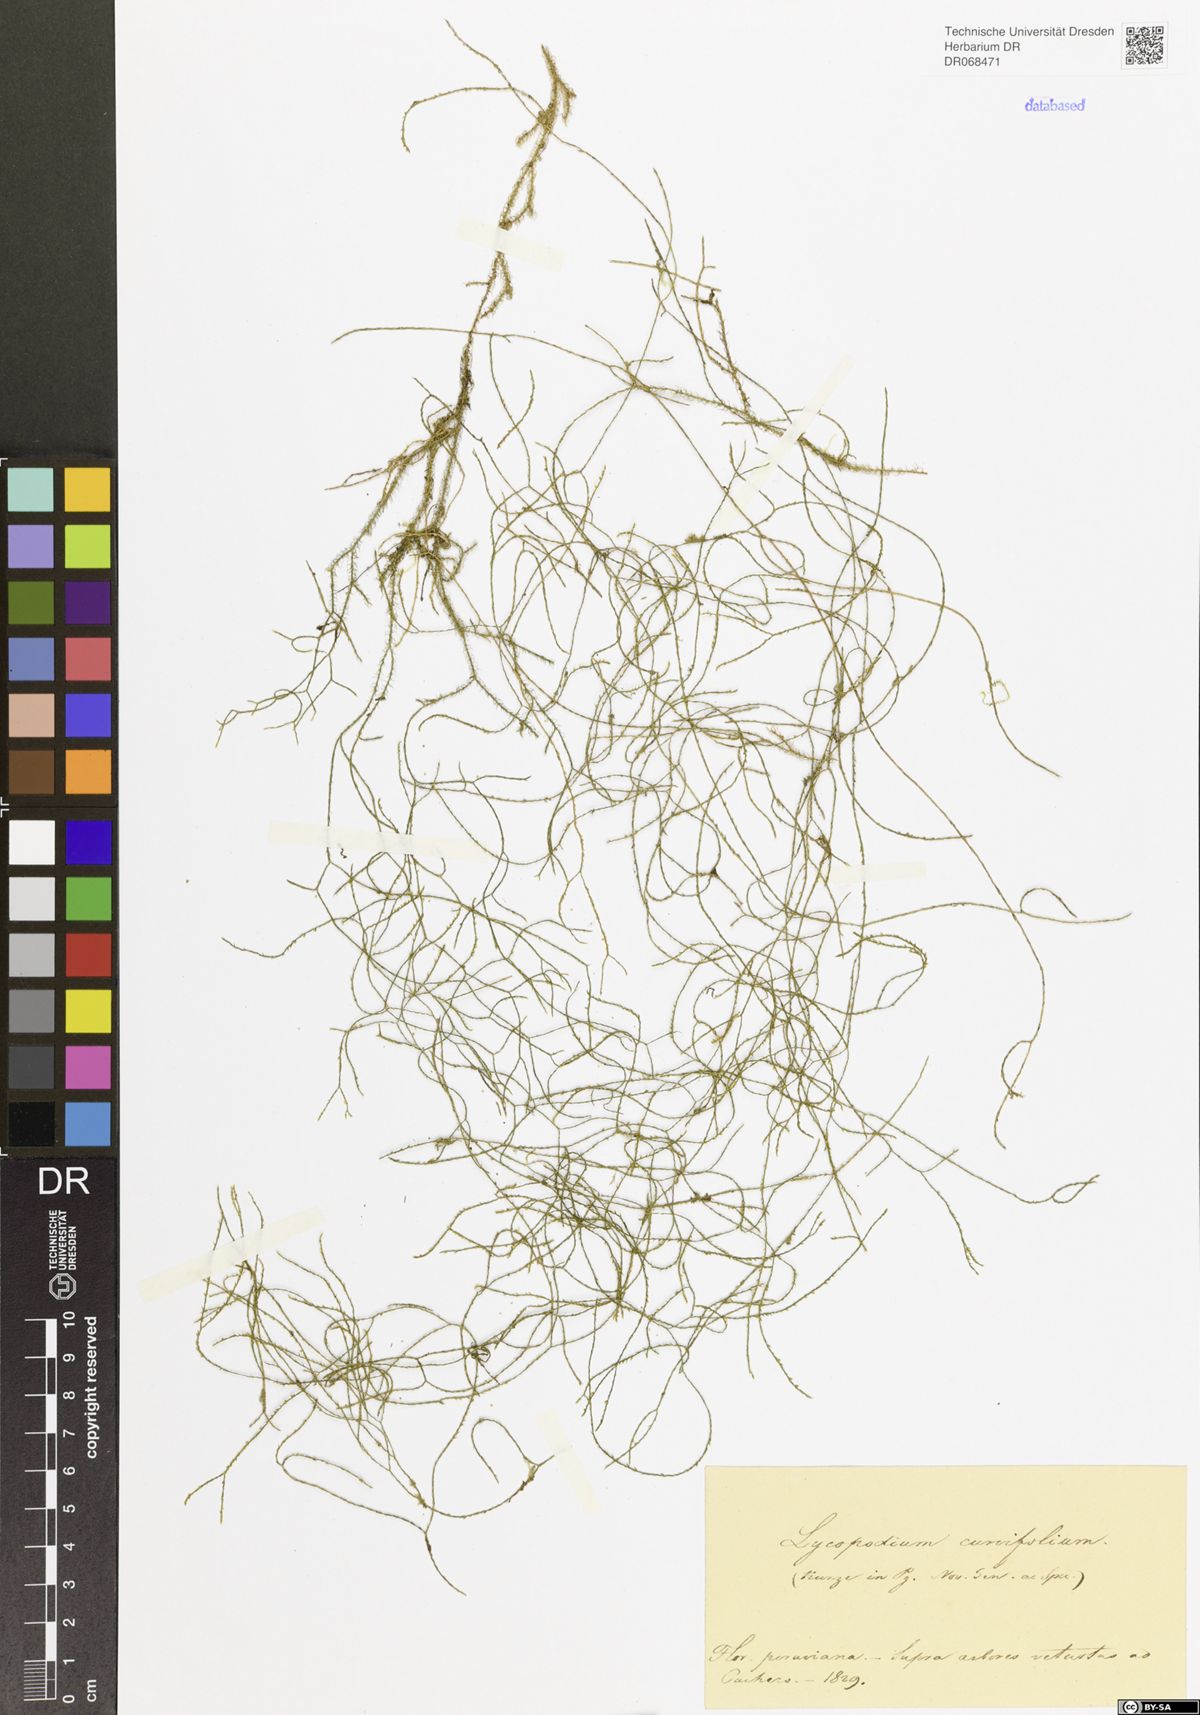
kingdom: Plantae
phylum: Tracheophyta
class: Lycopodiopsida
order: Lycopodiales
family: Lycopodiaceae
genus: Phlegmariurus
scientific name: Phlegmariurus curvifolius
